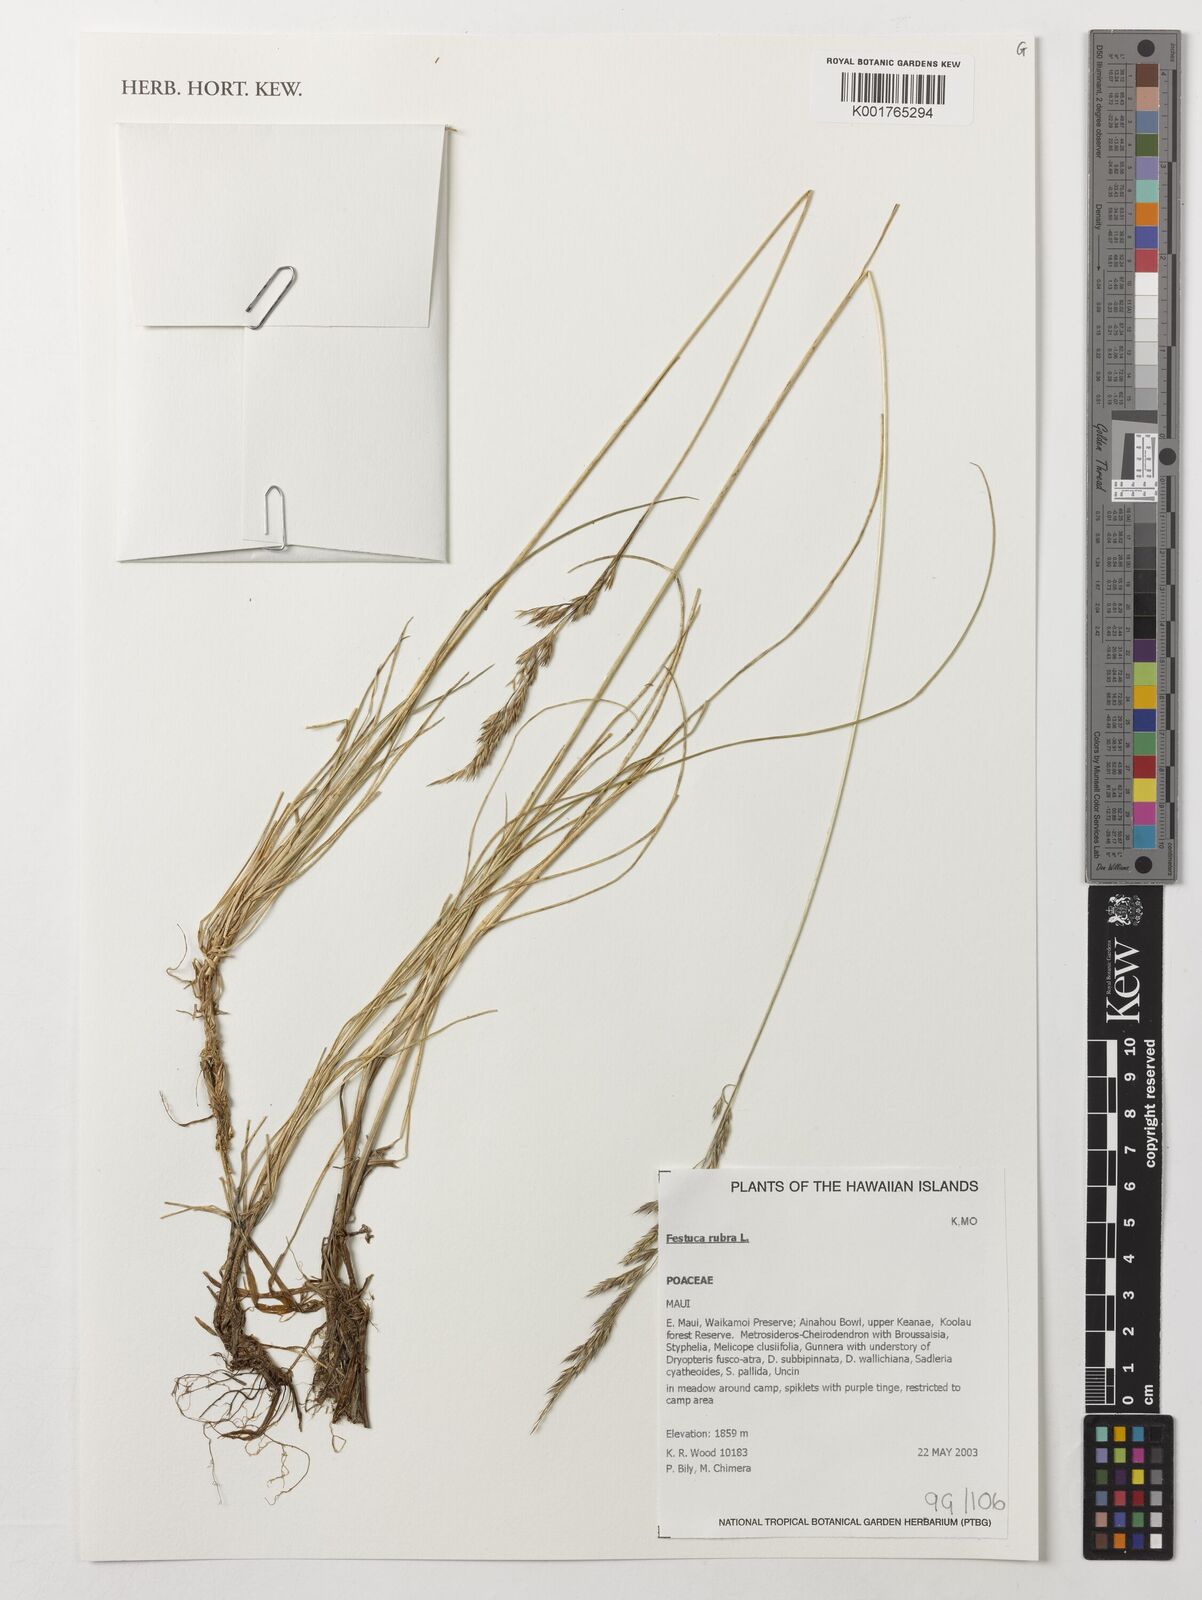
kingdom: Plantae
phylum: Tracheophyta
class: Liliopsida
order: Poales
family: Poaceae
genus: Festuca
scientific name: Festuca rubra
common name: Red fescue
